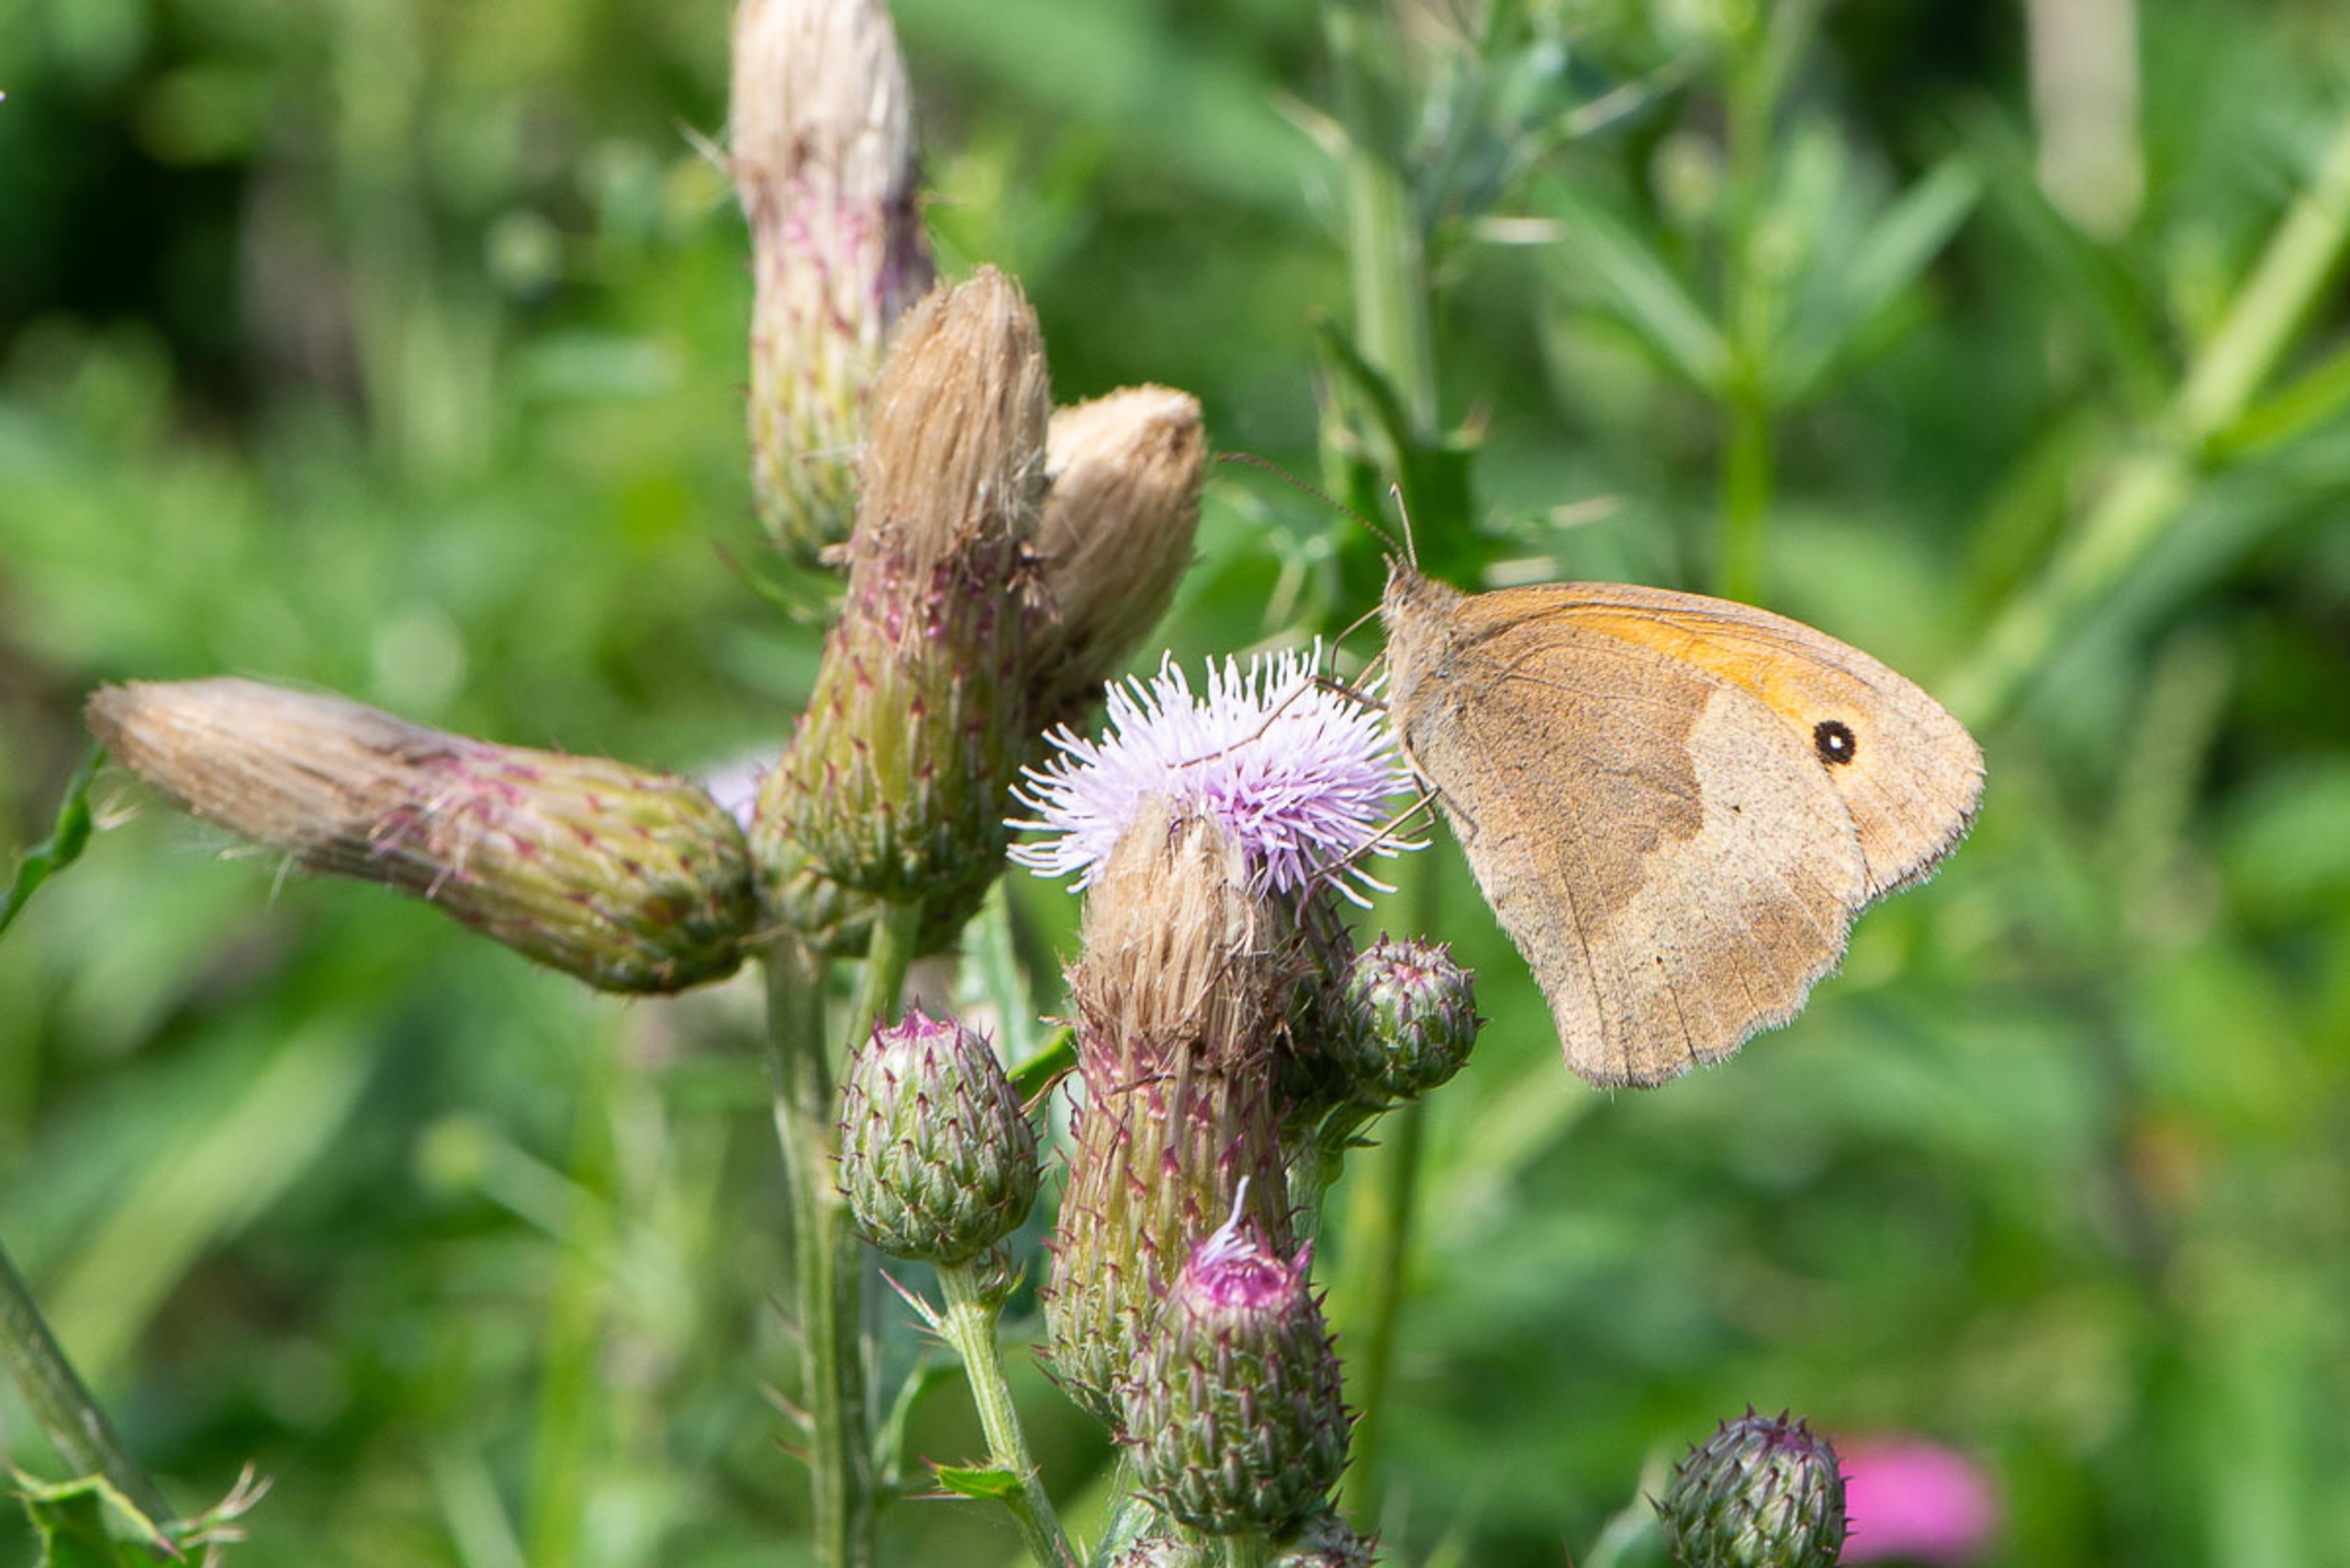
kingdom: Animalia
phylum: Arthropoda
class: Insecta
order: Lepidoptera
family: Nymphalidae
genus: Maniola
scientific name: Maniola jurtina
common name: Græsrandøje
